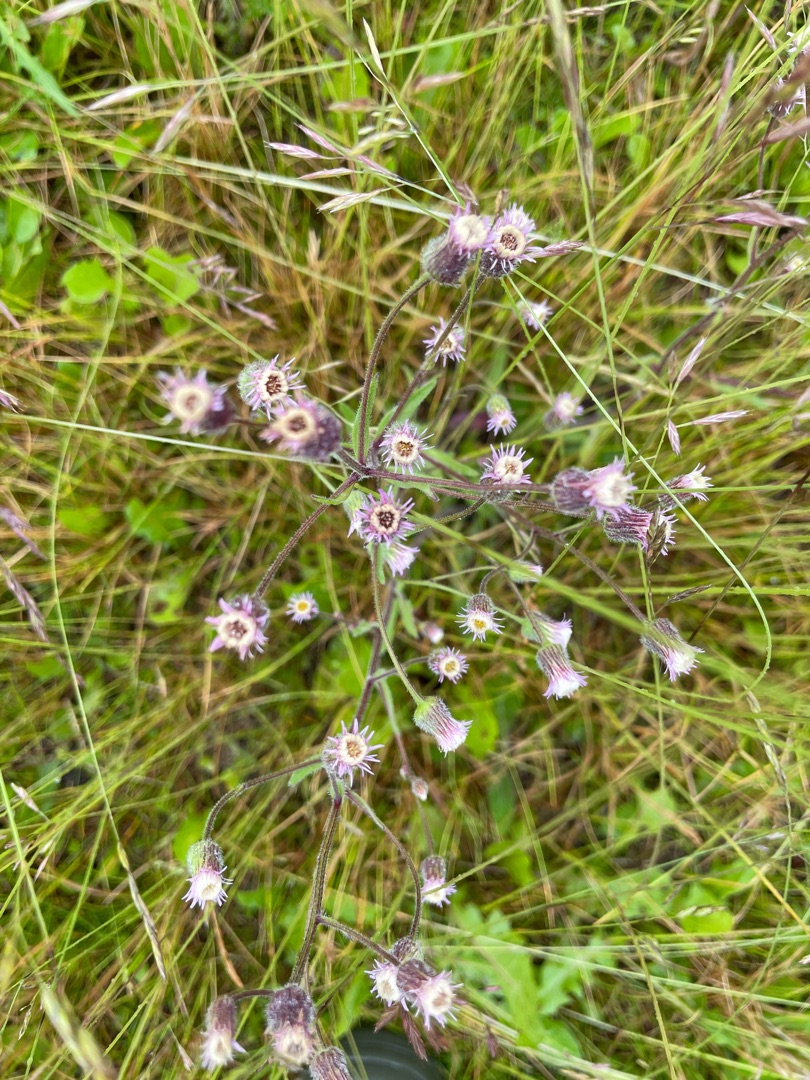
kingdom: Plantae
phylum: Tracheophyta
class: Magnoliopsida
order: Asterales
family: Asteraceae
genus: Erigeron
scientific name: Erigeron acris
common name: Bitter bakkestjerne
